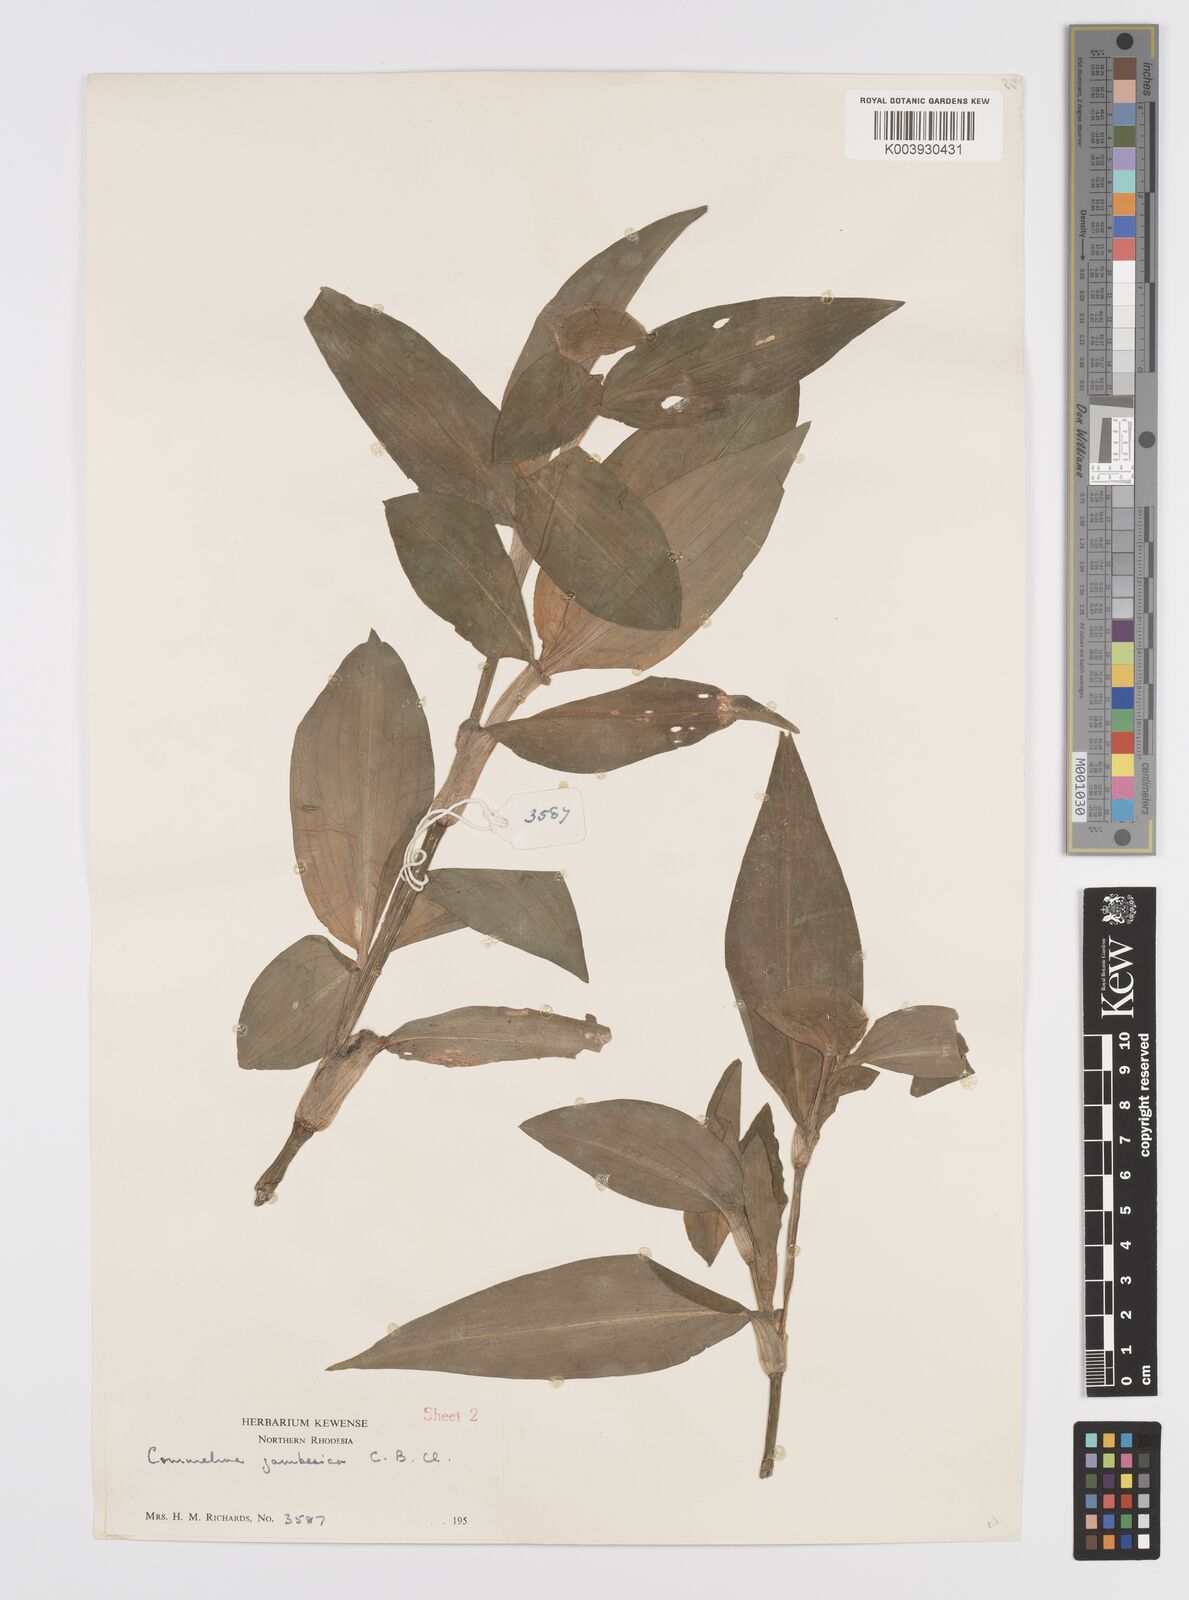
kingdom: Plantae
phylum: Tracheophyta
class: Liliopsida
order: Commelinales
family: Commelinaceae
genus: Commelina
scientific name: Commelina zambesica
